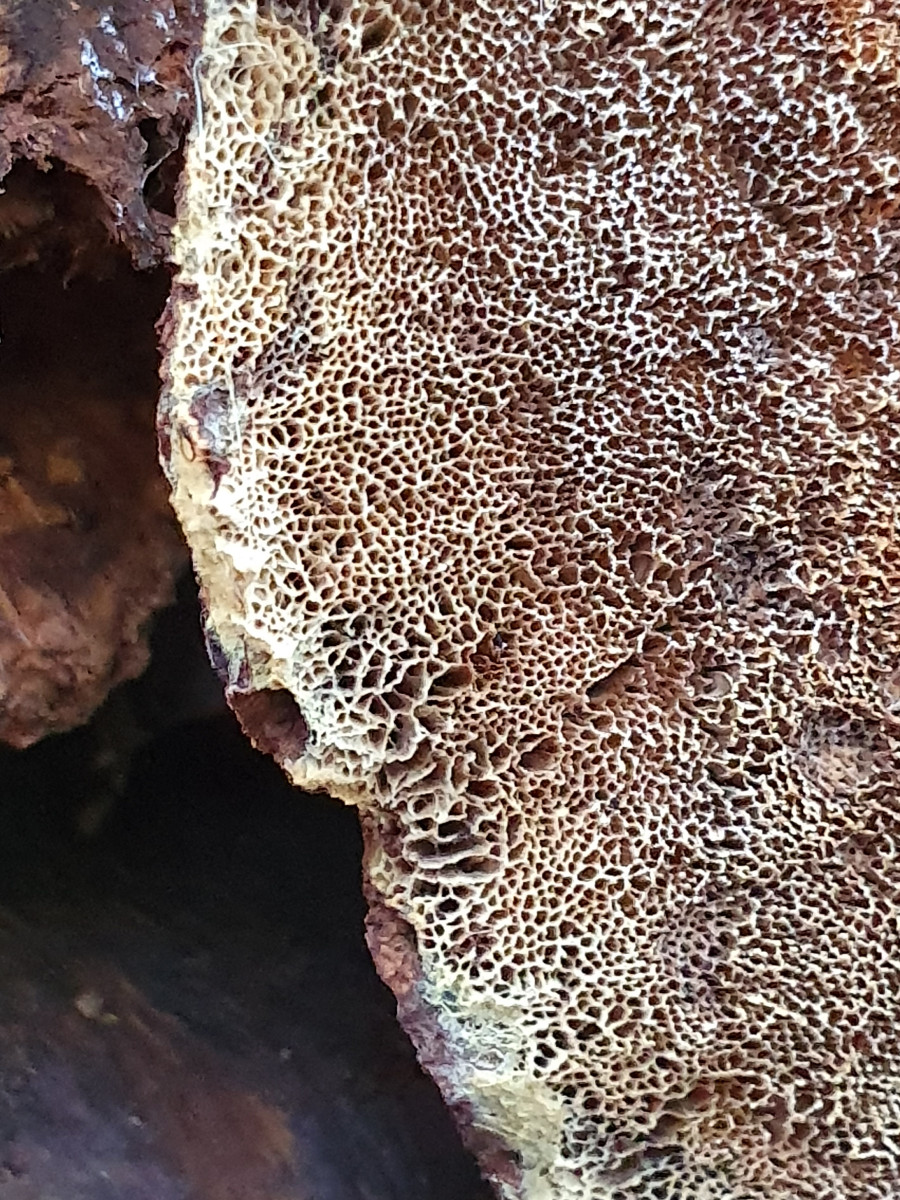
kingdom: Fungi
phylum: Basidiomycota
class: Agaricomycetes
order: Hymenochaetales
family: Hymenochaetaceae
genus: Xanthoporia
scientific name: Xanthoporia radiata
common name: elle-spejlporesvamp
